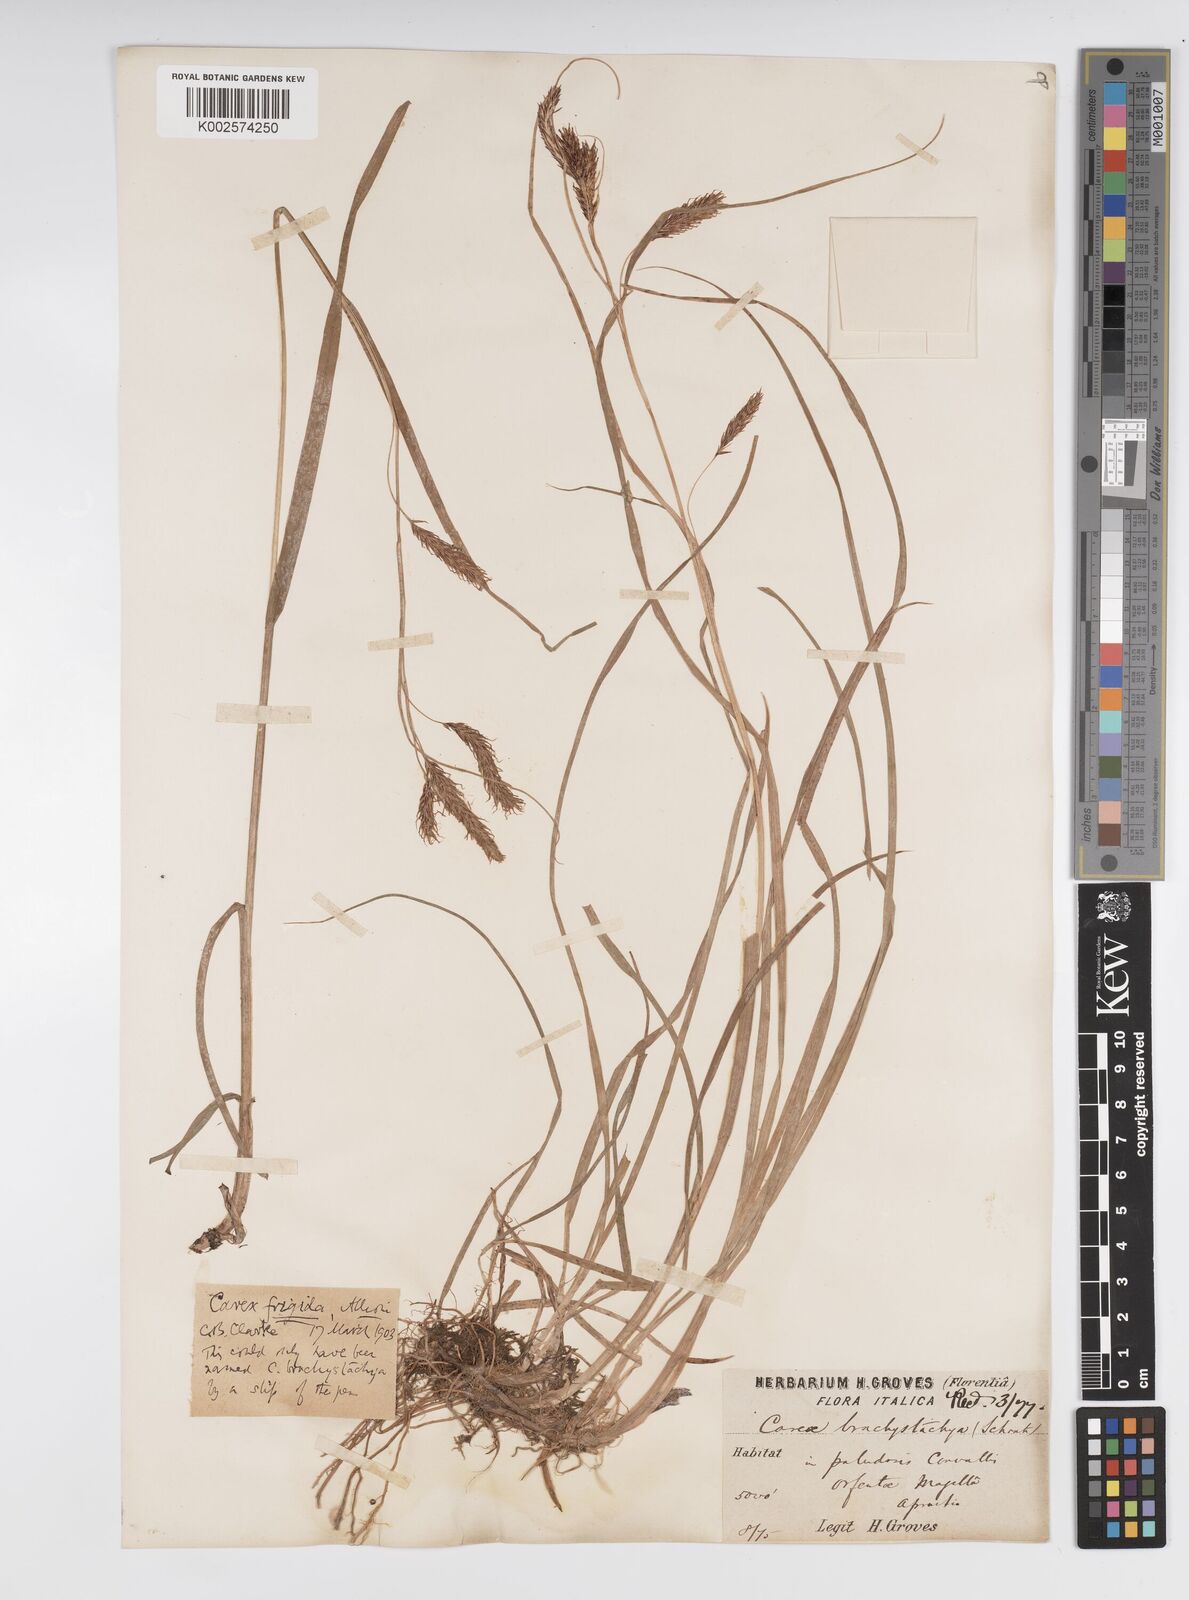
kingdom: Plantae
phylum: Tracheophyta
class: Liliopsida
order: Poales
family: Cyperaceae
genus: Carex
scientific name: Carex frigida
